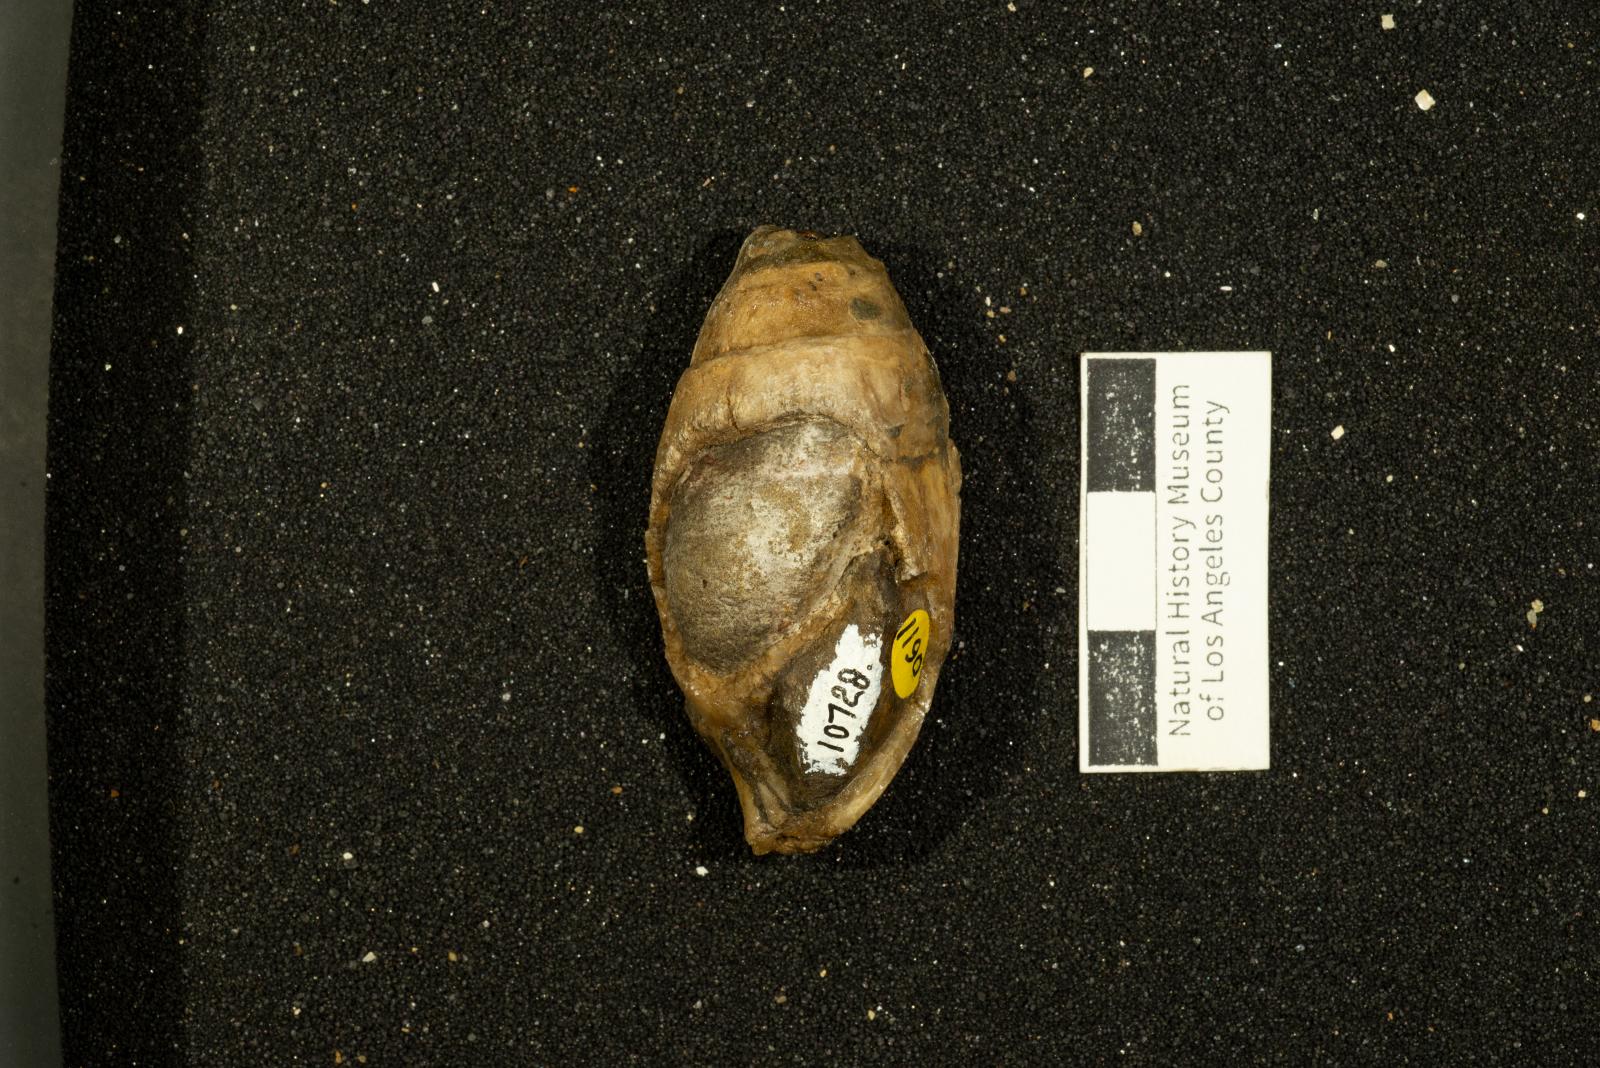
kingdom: Animalia
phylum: Mollusca
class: Gastropoda
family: Pseudomelaniidae
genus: Paosia
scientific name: Paosia Acteonina californica
